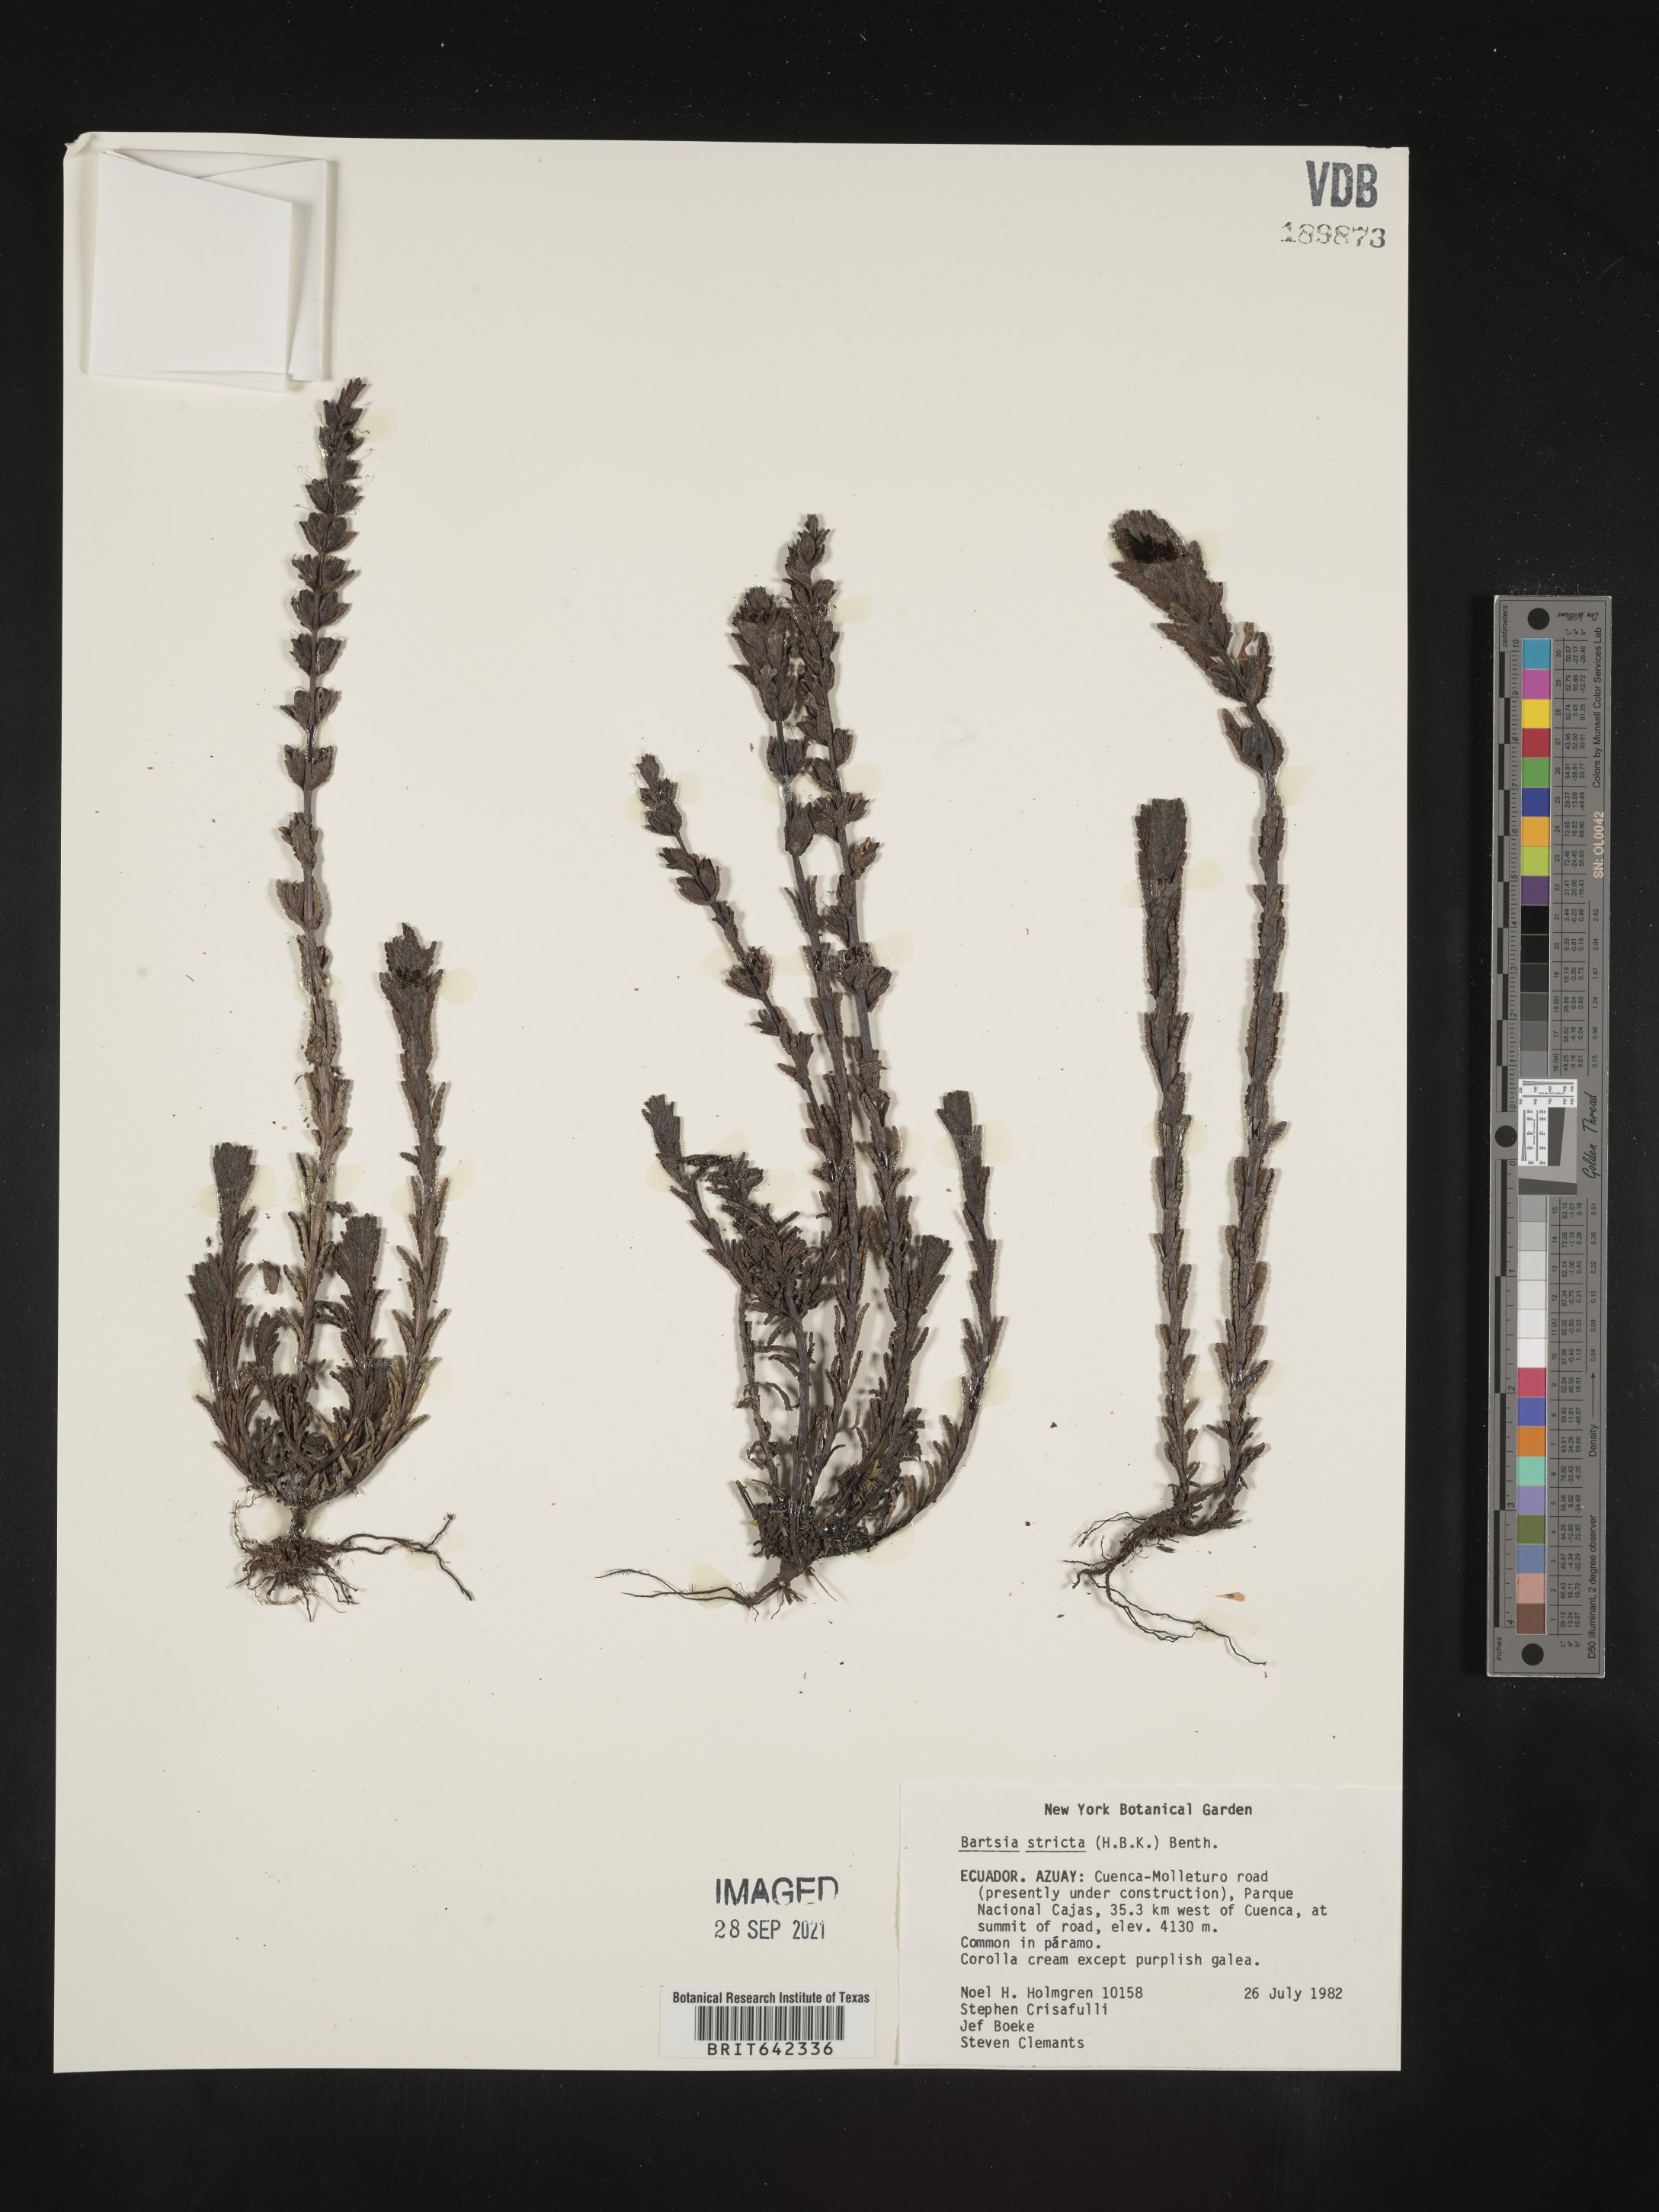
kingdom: Plantae
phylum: Tracheophyta
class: Magnoliopsida
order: Lamiales
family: Orobanchaceae
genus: Bartsia
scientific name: Bartsia
